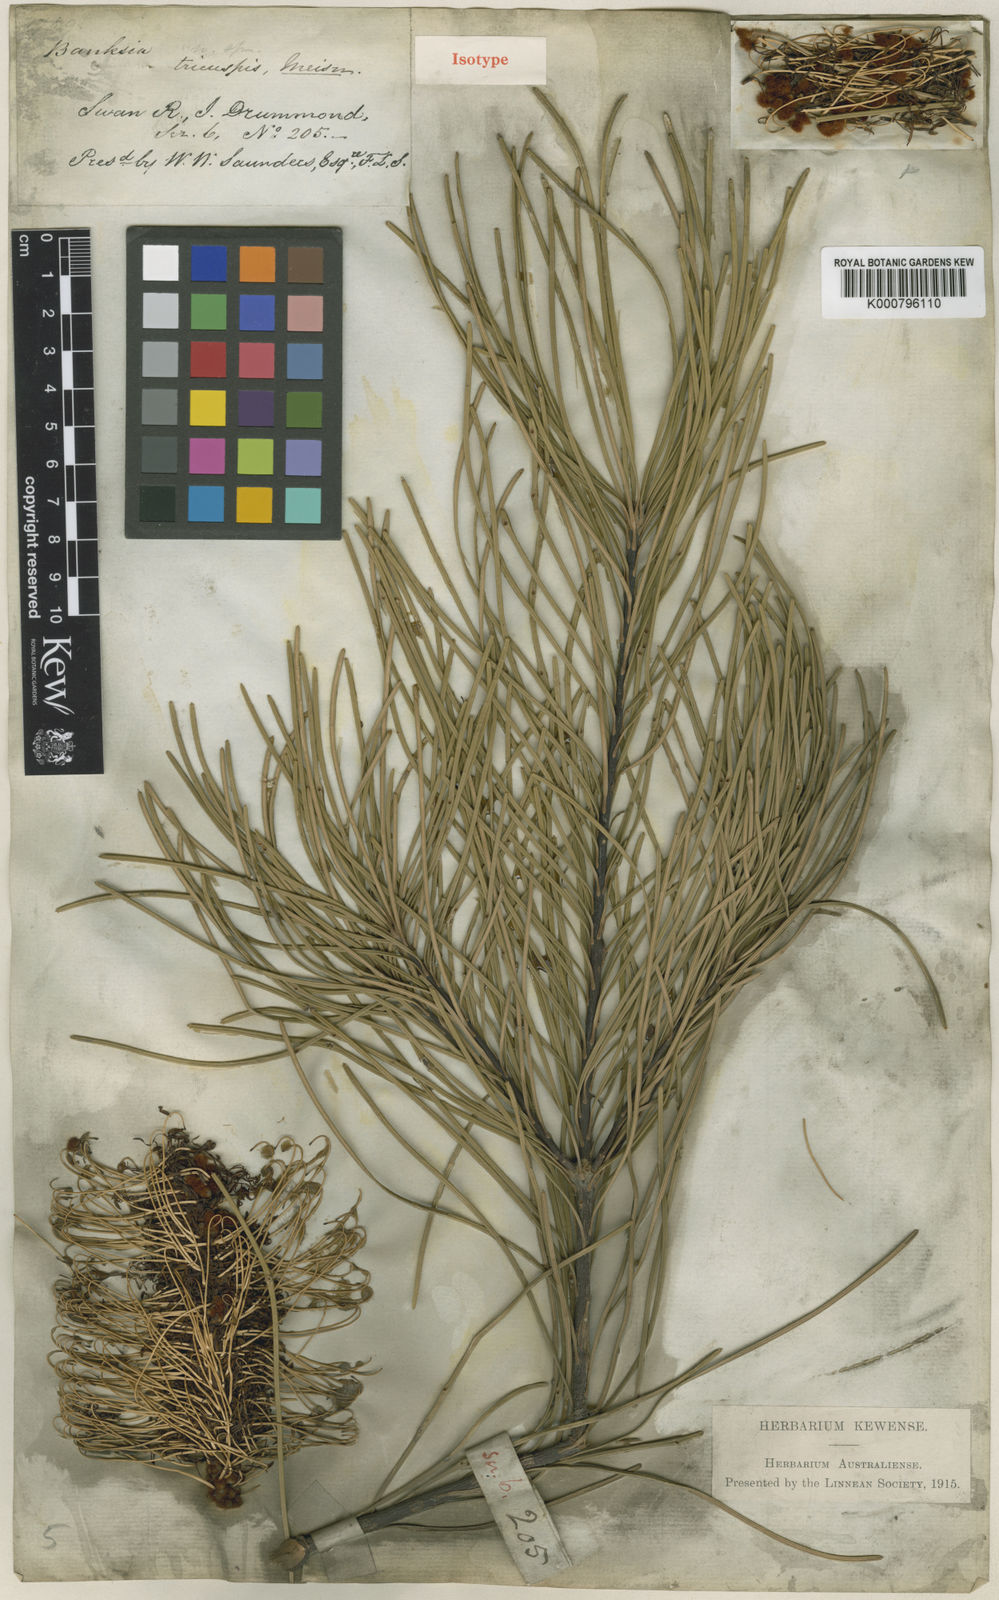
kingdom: Plantae
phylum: Tracheophyta
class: Magnoliopsida
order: Proteales
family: Proteaceae
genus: Banksia
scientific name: Banksia tricuspis
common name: Lesueur banksia
